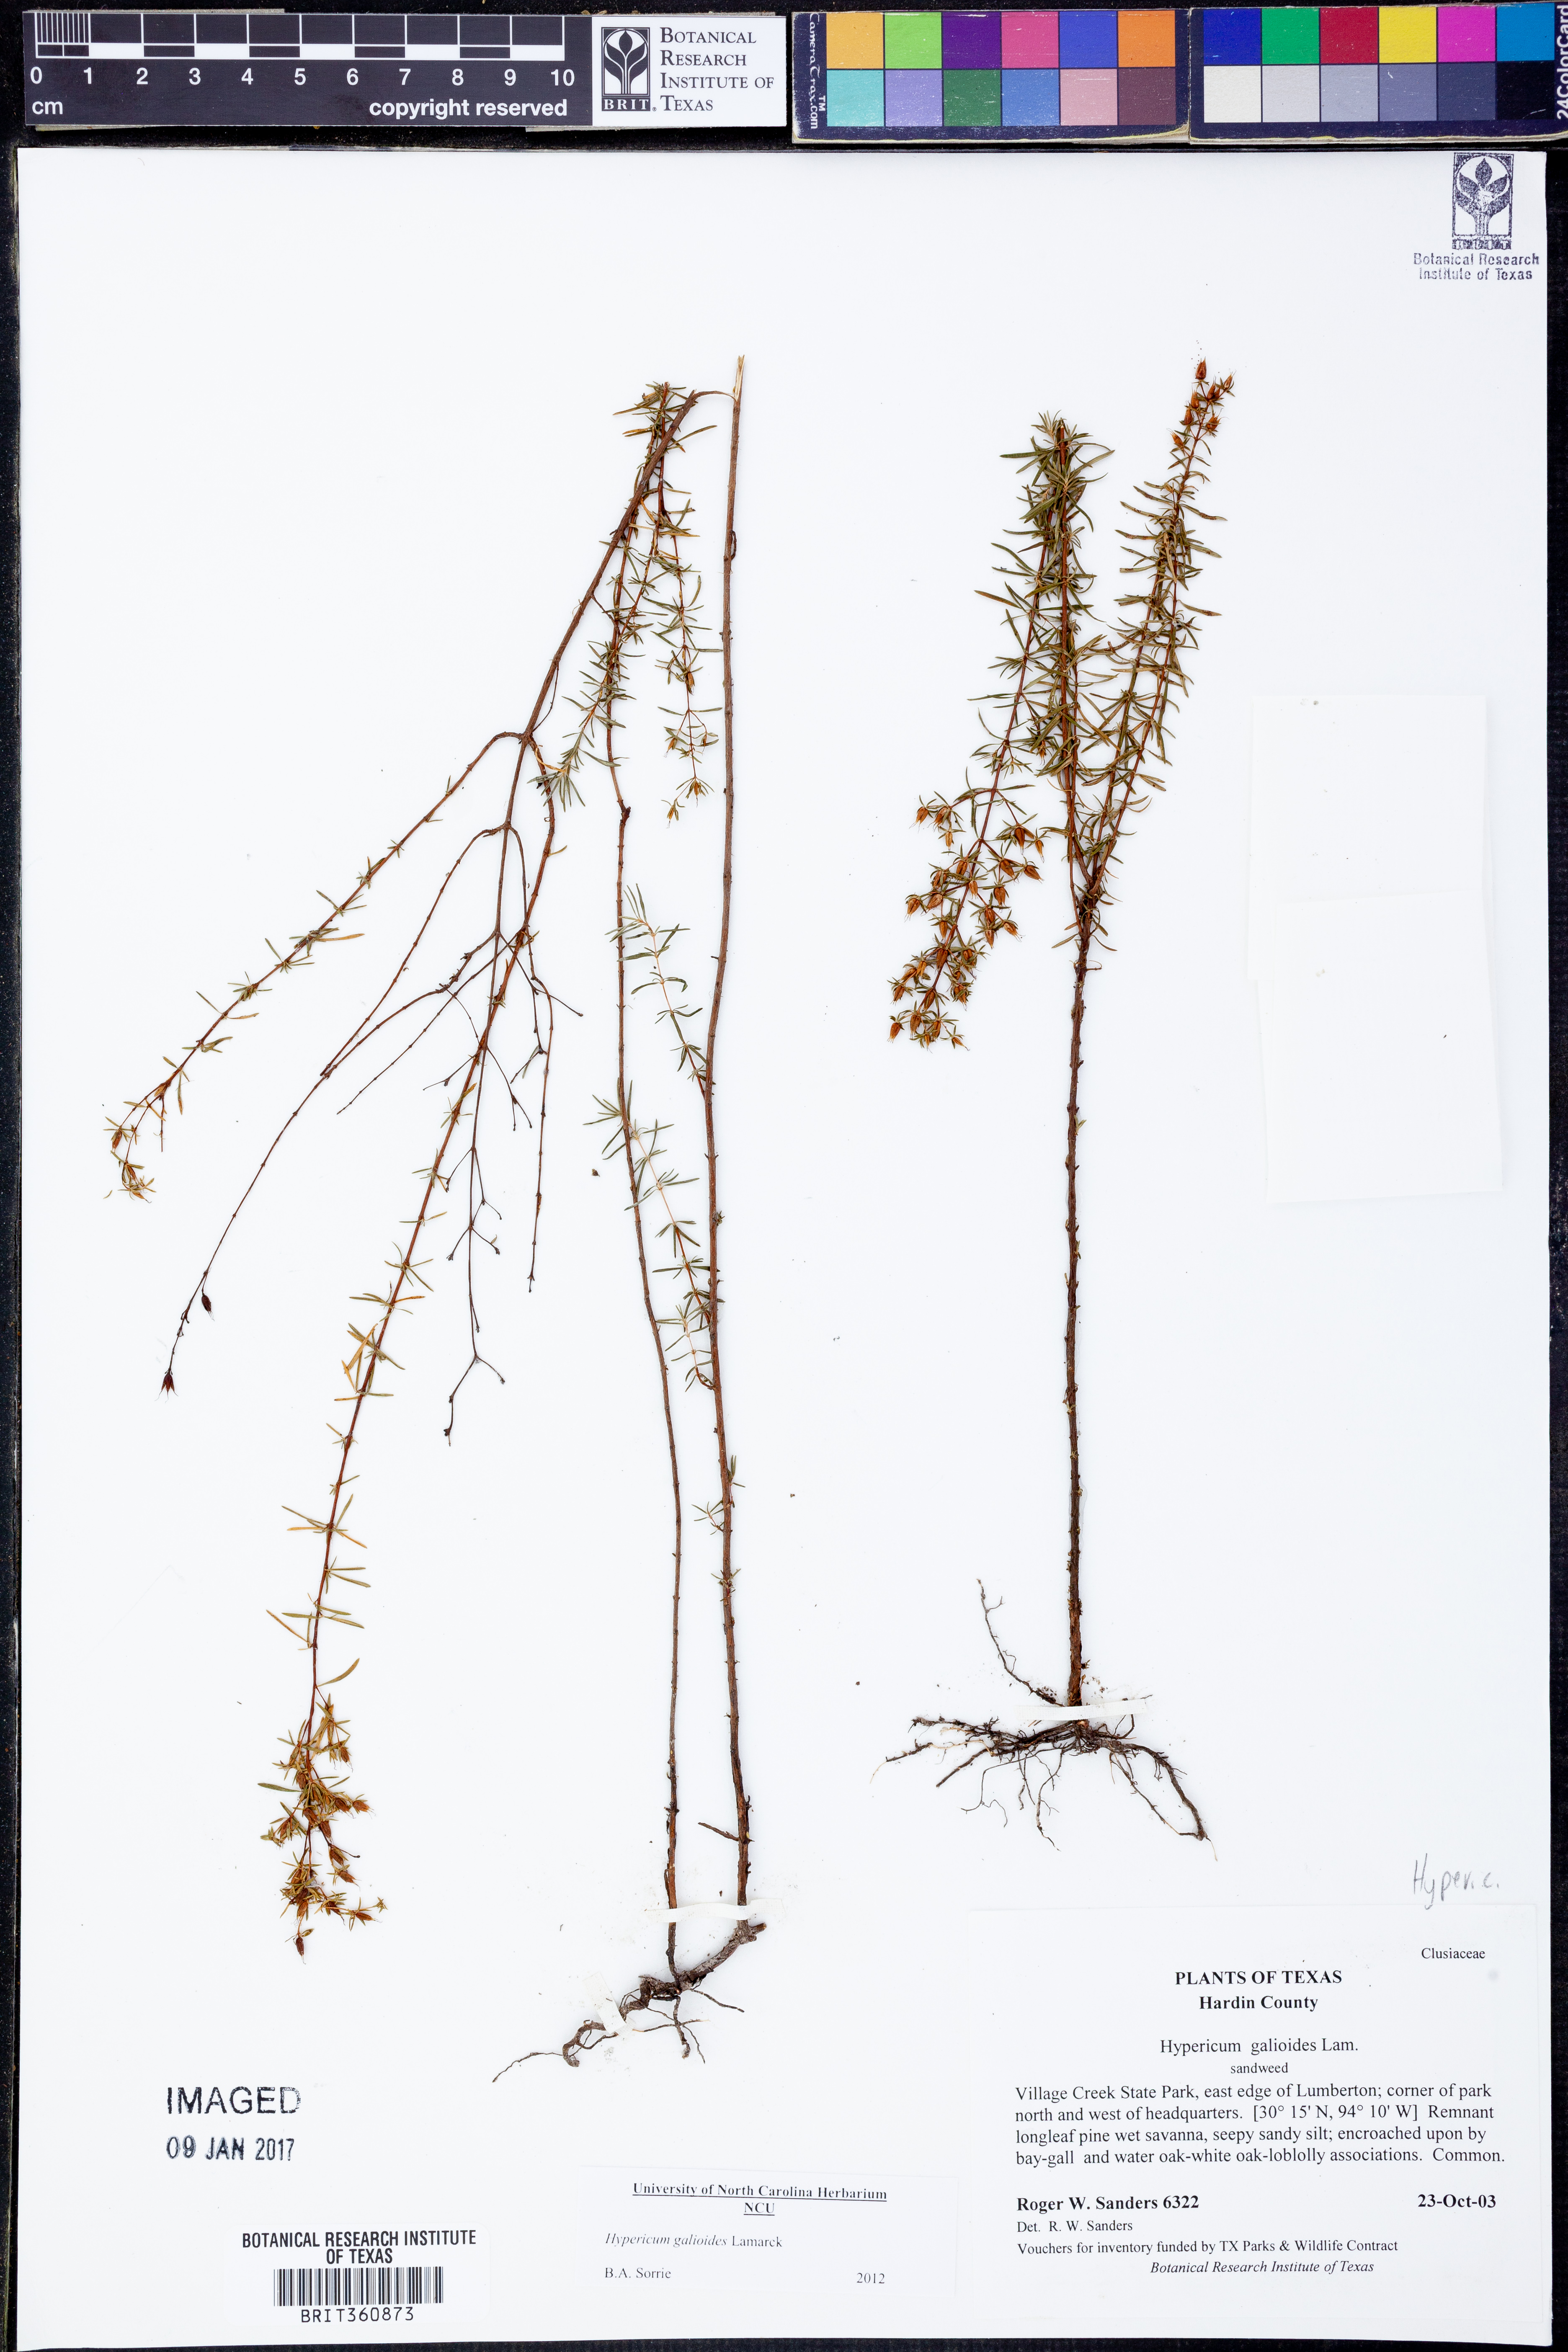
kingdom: Plantae
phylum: Tracheophyta
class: Magnoliopsida
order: Malpighiales
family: Hypericaceae
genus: Hypericum
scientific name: Hypericum galioides
